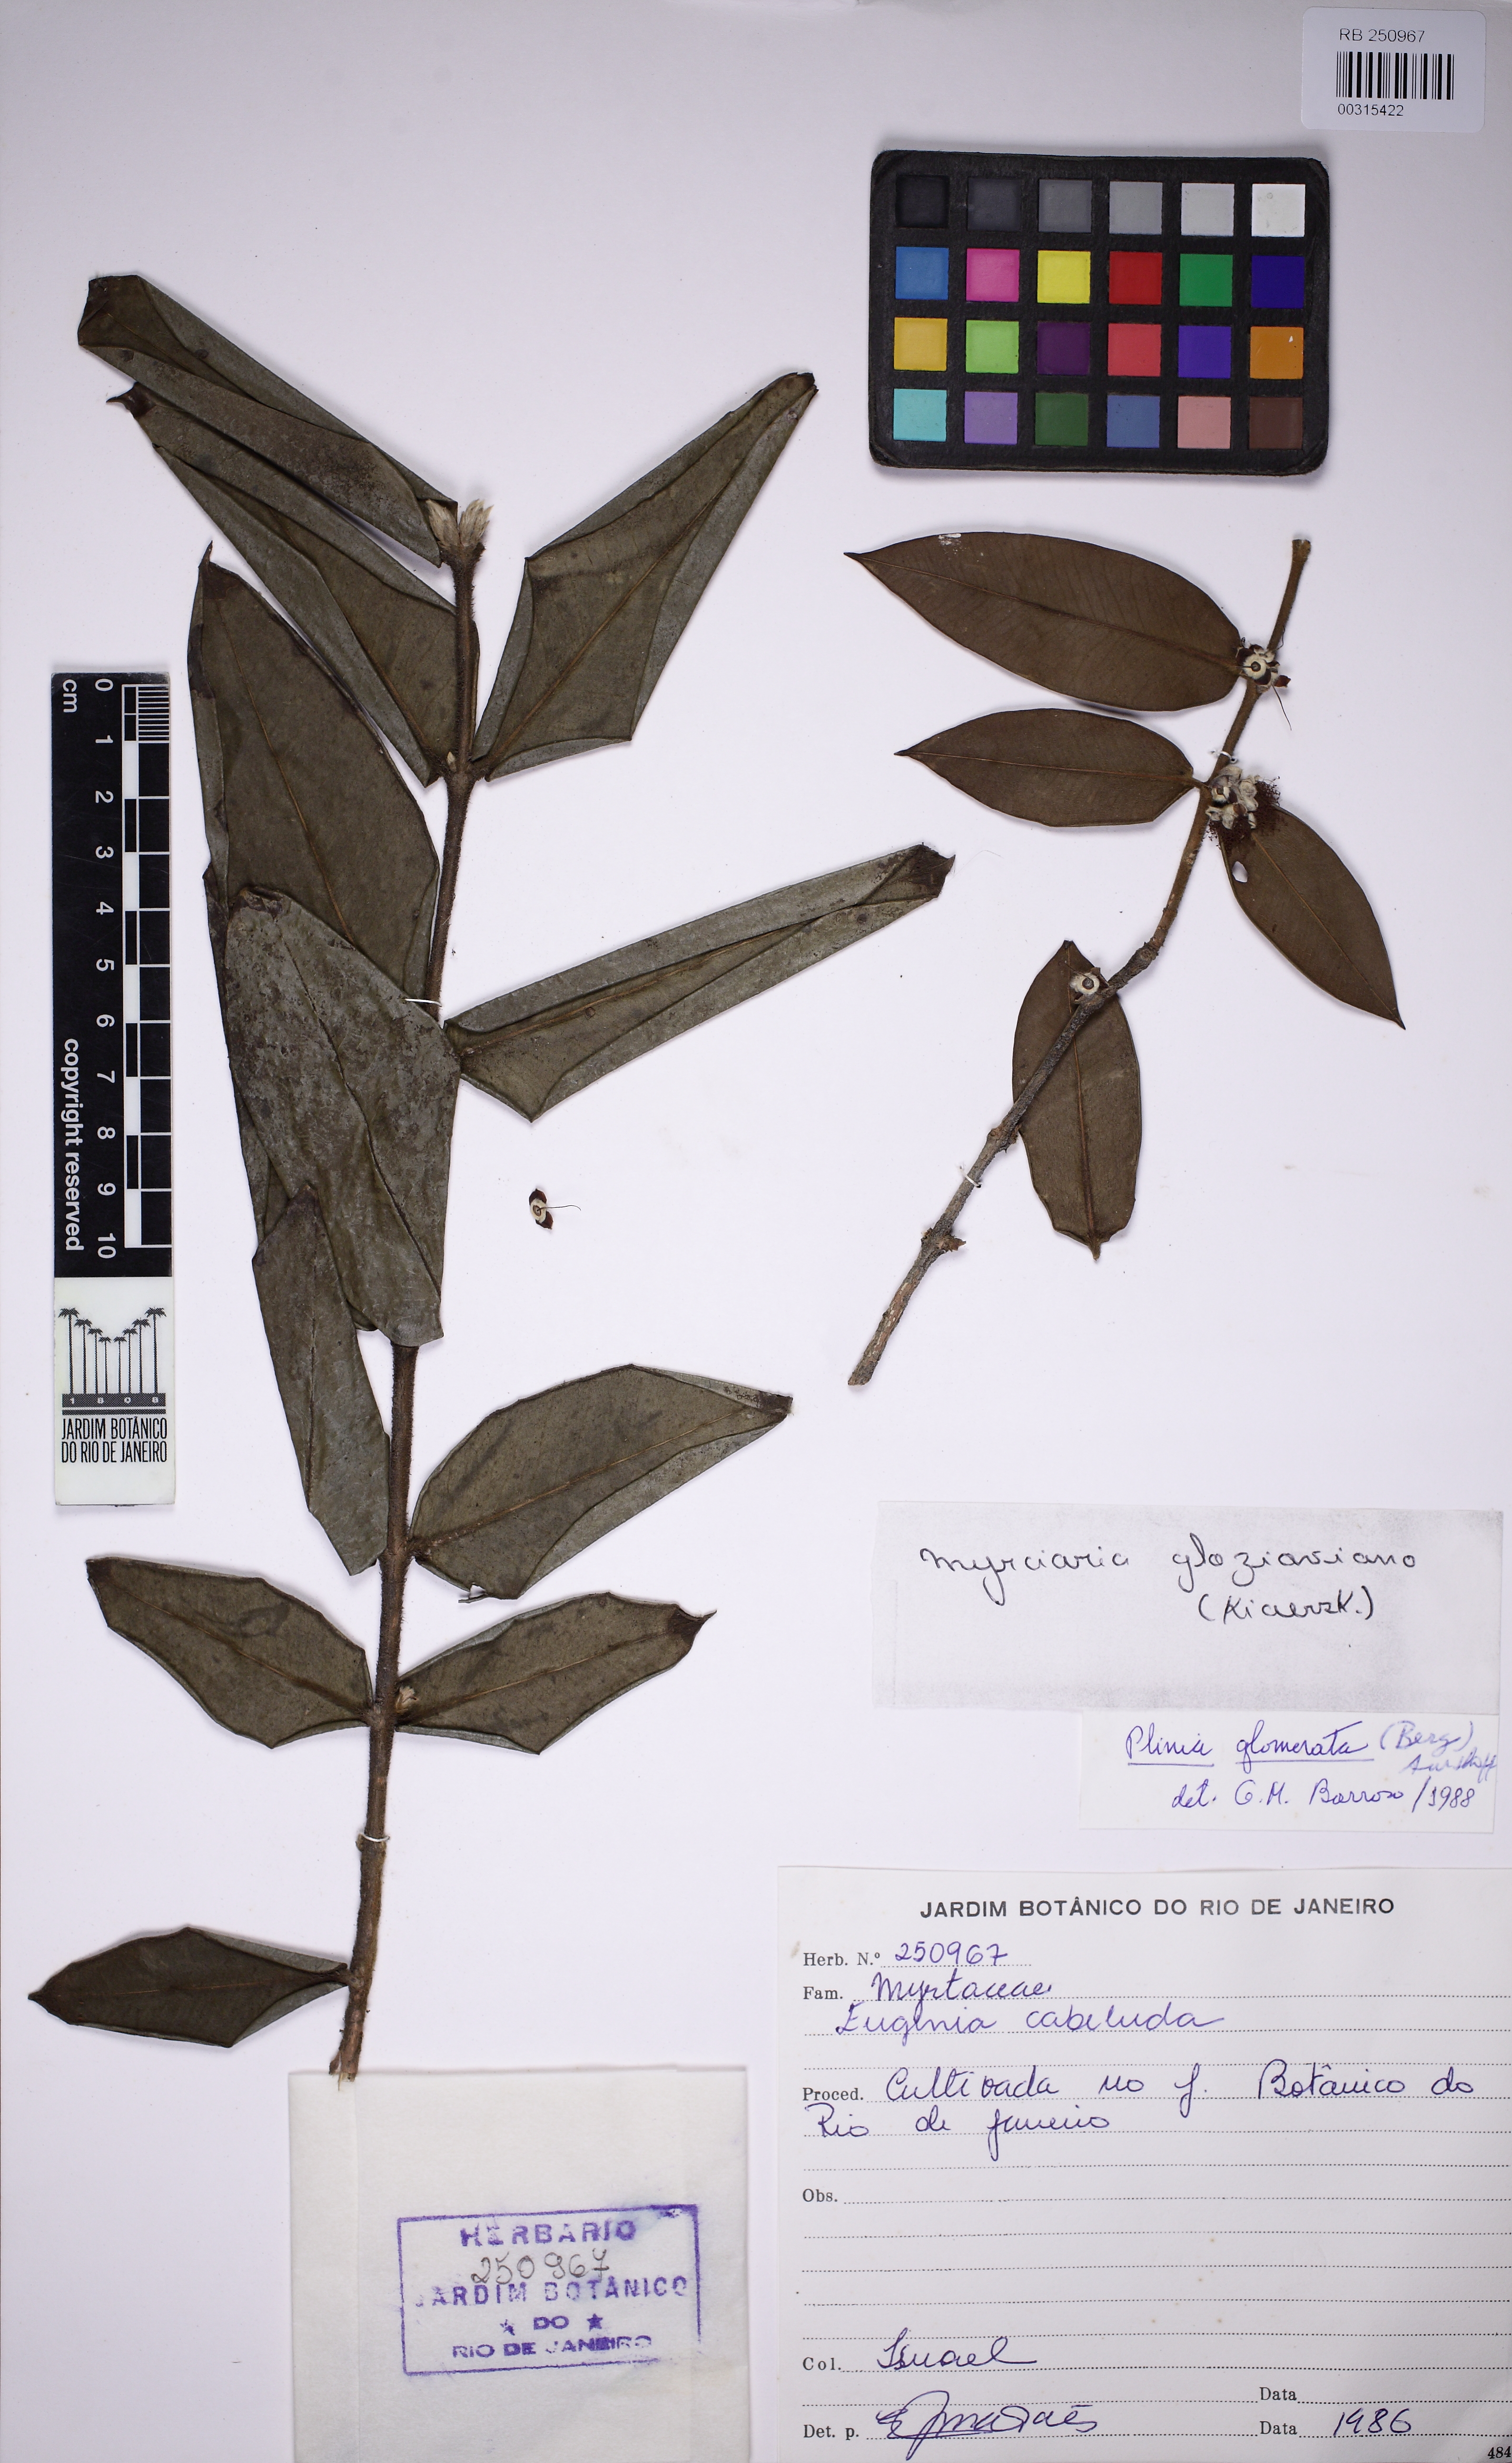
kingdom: Plantae
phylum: Tracheophyta
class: Magnoliopsida
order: Myrtales
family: Myrtaceae
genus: Myrciaria
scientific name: Myrciaria glazioviana
